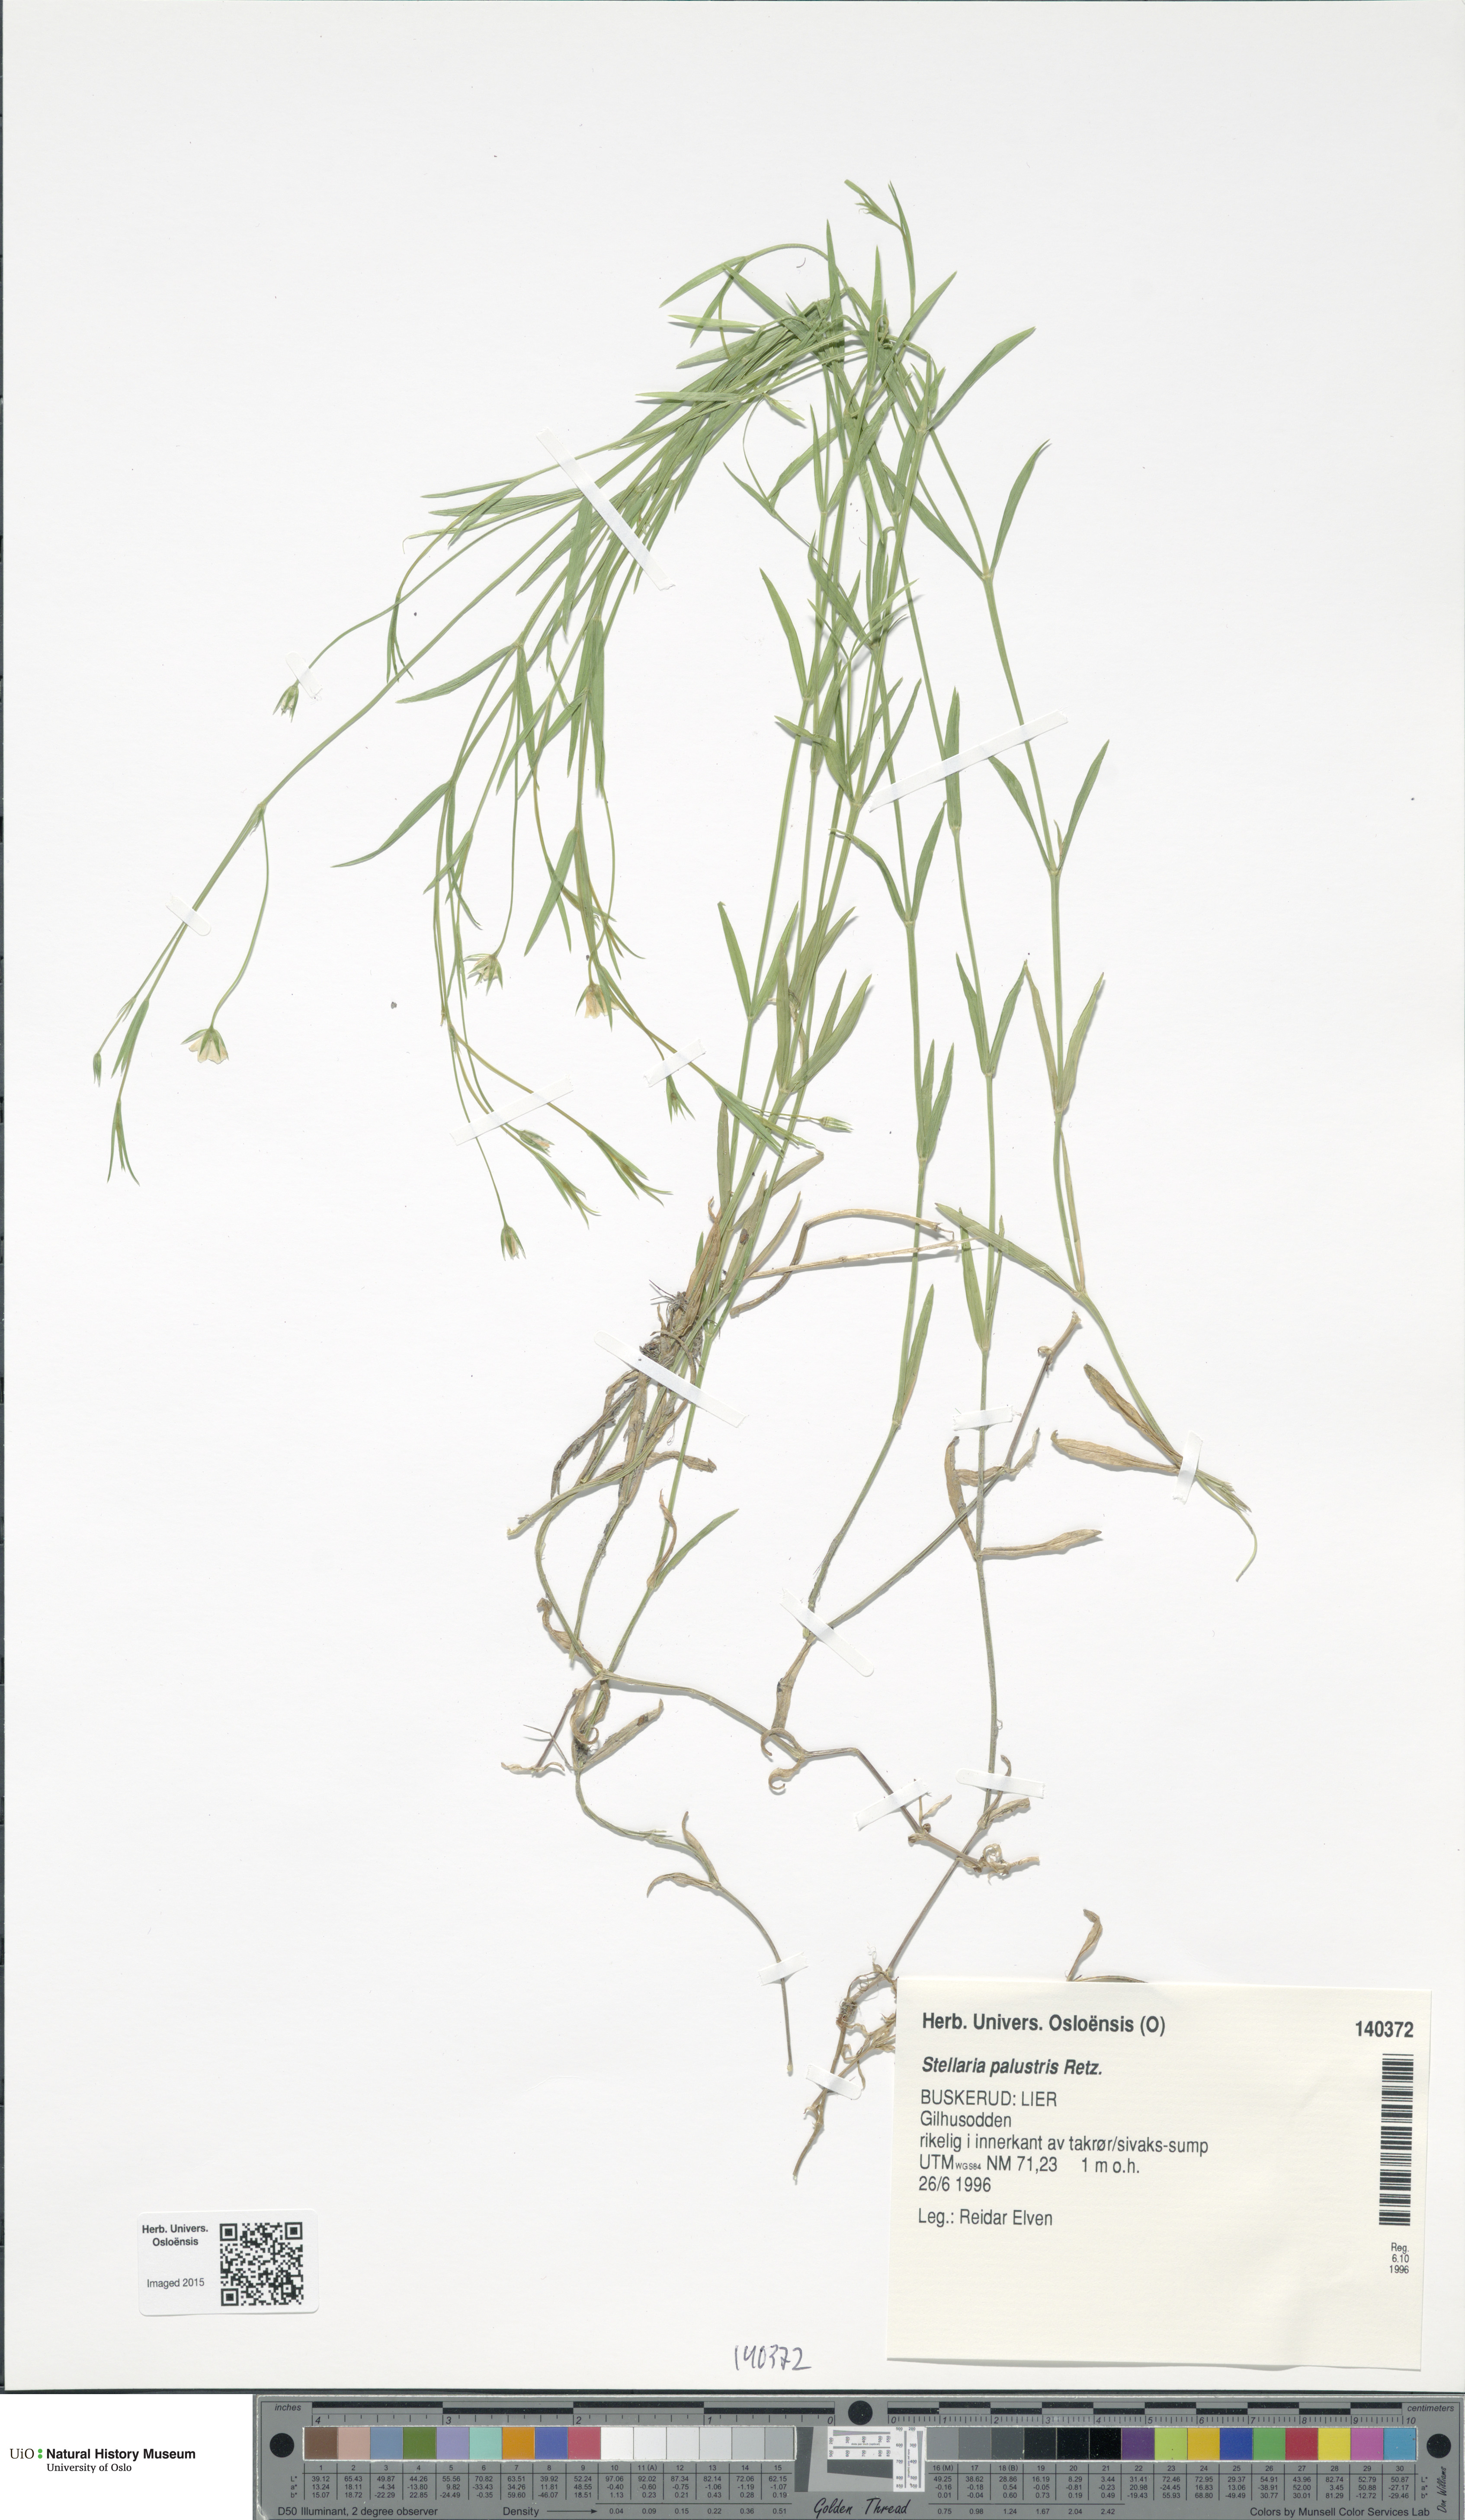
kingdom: Plantae
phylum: Tracheophyta
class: Magnoliopsida
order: Caryophyllales
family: Caryophyllaceae
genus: Stellaria
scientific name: Stellaria palustris
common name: Marsh stitchwort
